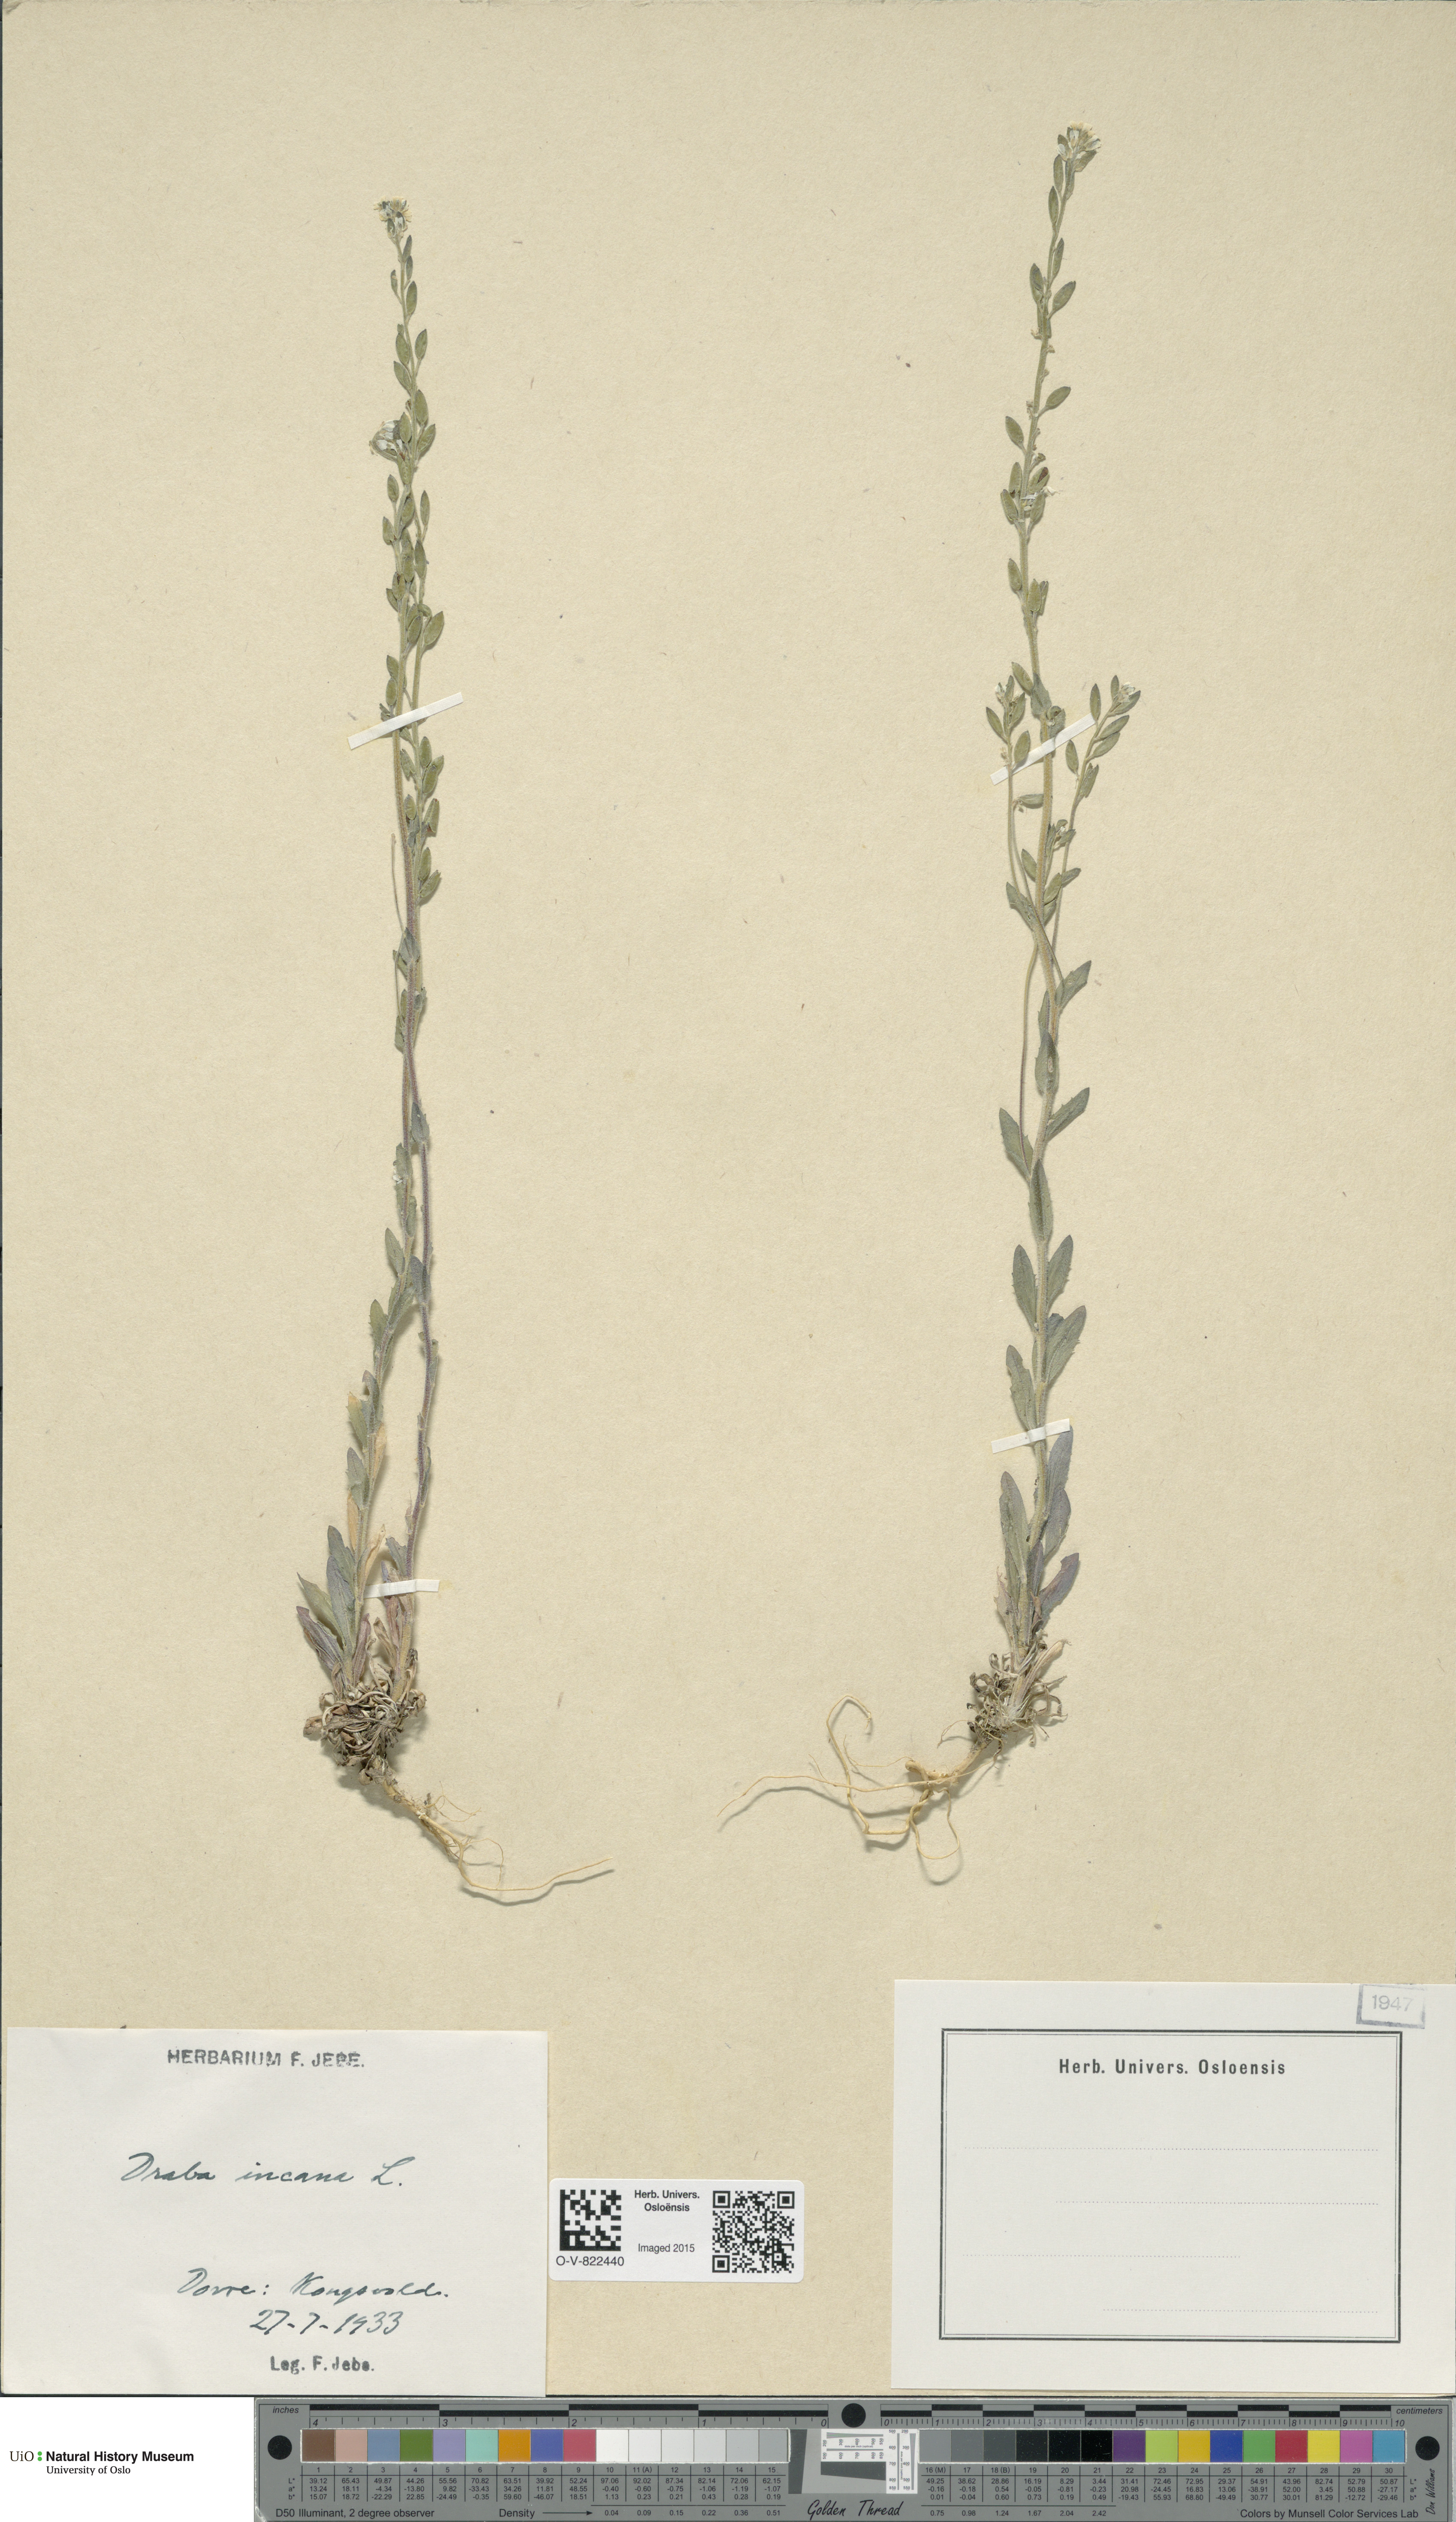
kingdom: Plantae
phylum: Tracheophyta
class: Magnoliopsida
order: Brassicales
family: Brassicaceae
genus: Draba
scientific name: Draba incana
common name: Hoary whitlow-grass
